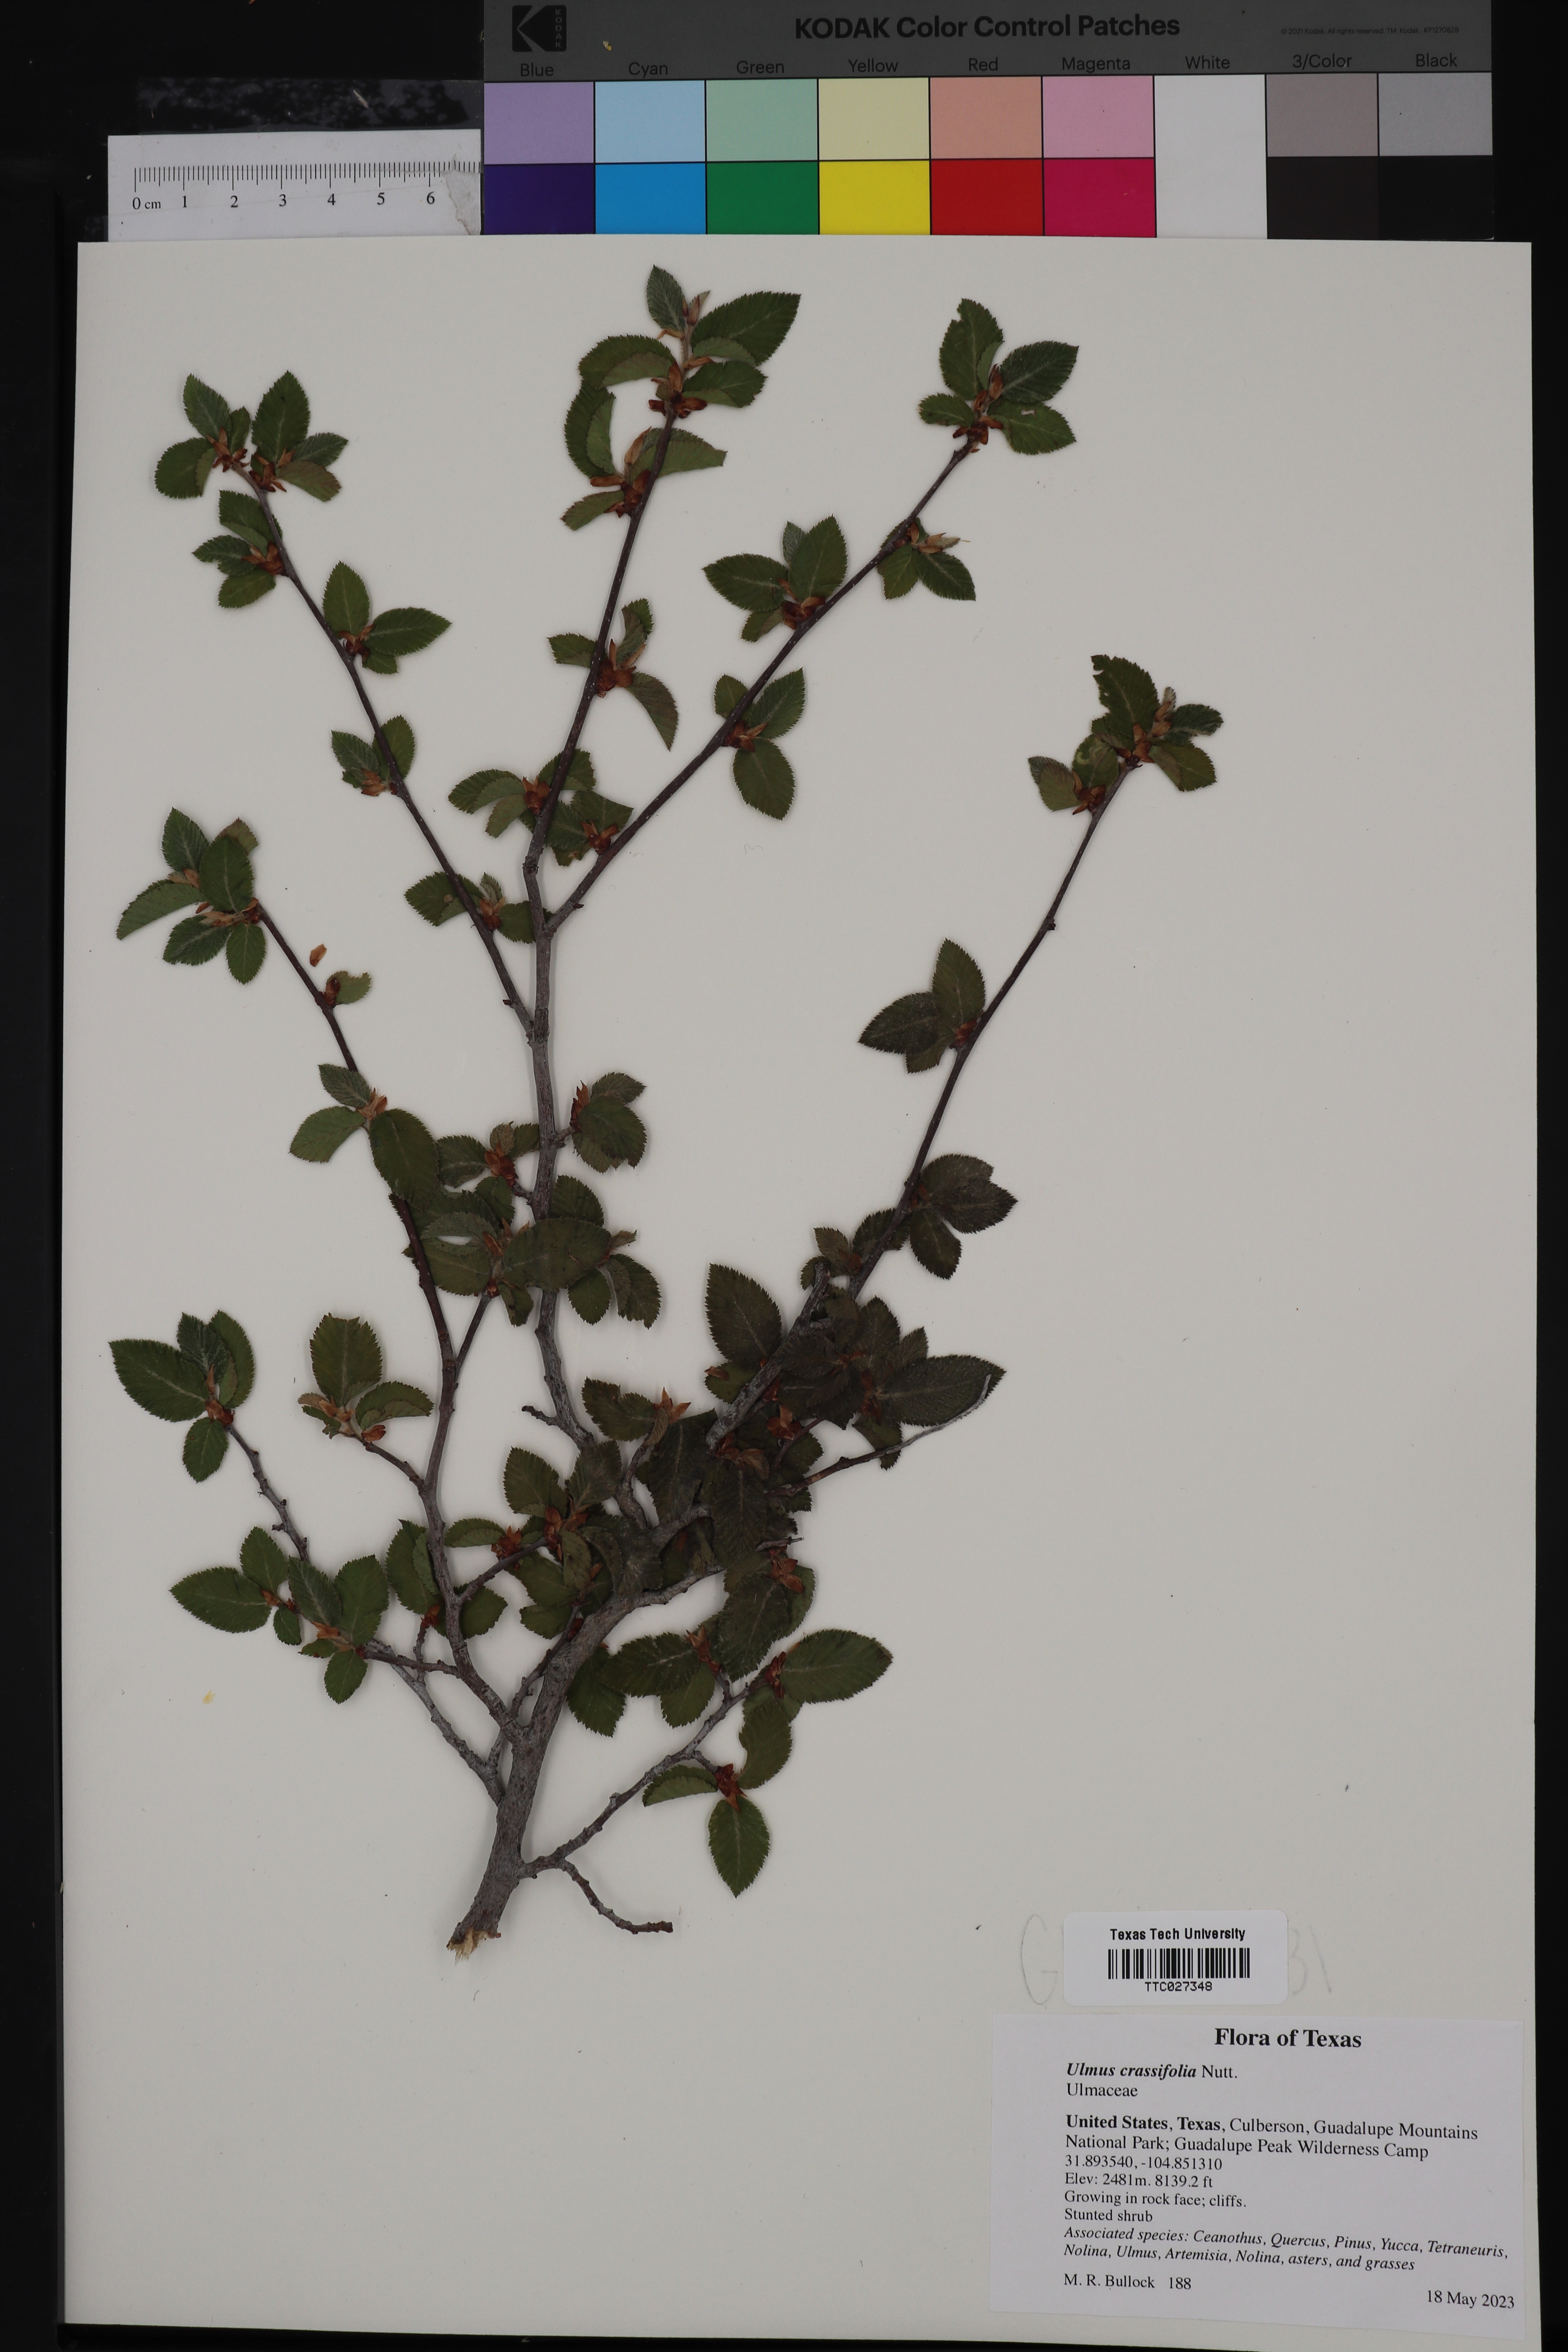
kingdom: Plantae
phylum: Tracheophyta
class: Magnoliopsida
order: Rosales
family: Ulmaceae
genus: Ulmus
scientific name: Ulmus crassifolia
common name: Basket elm
